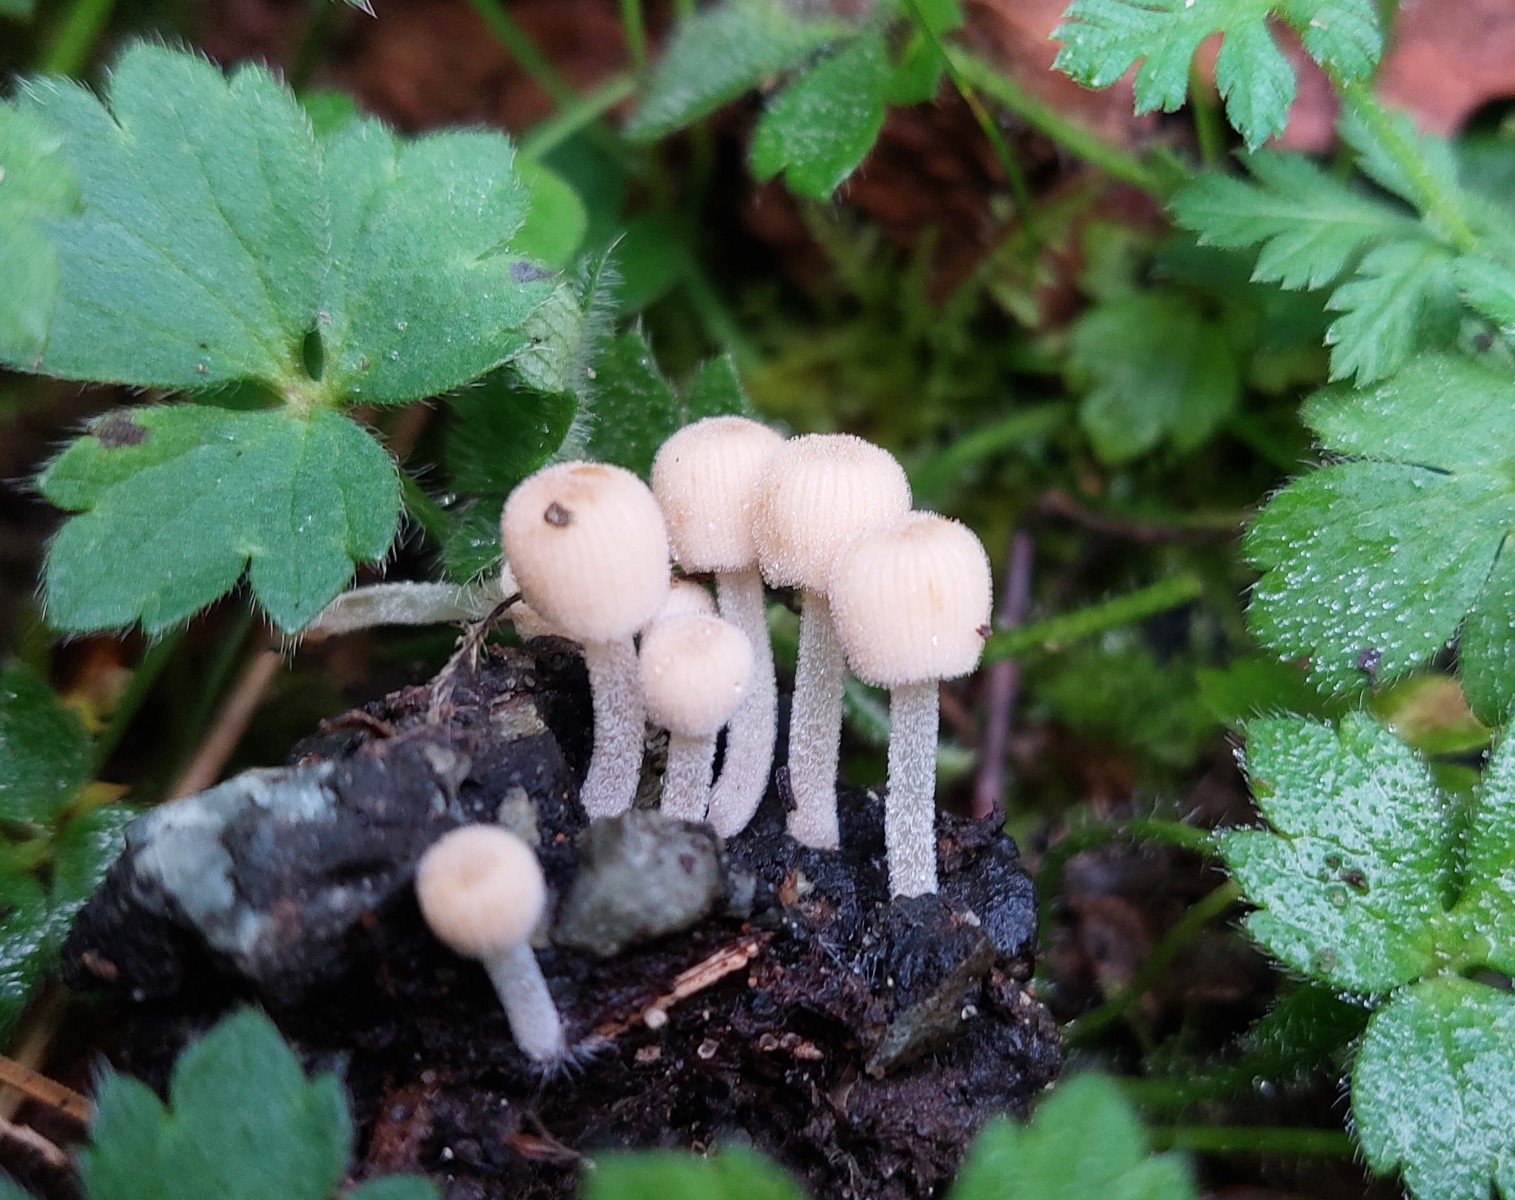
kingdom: Fungi
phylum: Basidiomycota
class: Agaricomycetes
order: Agaricales
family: Psathyrellaceae
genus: Coprinellus
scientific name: Coprinellus disseminatus
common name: bredsået blækhat
